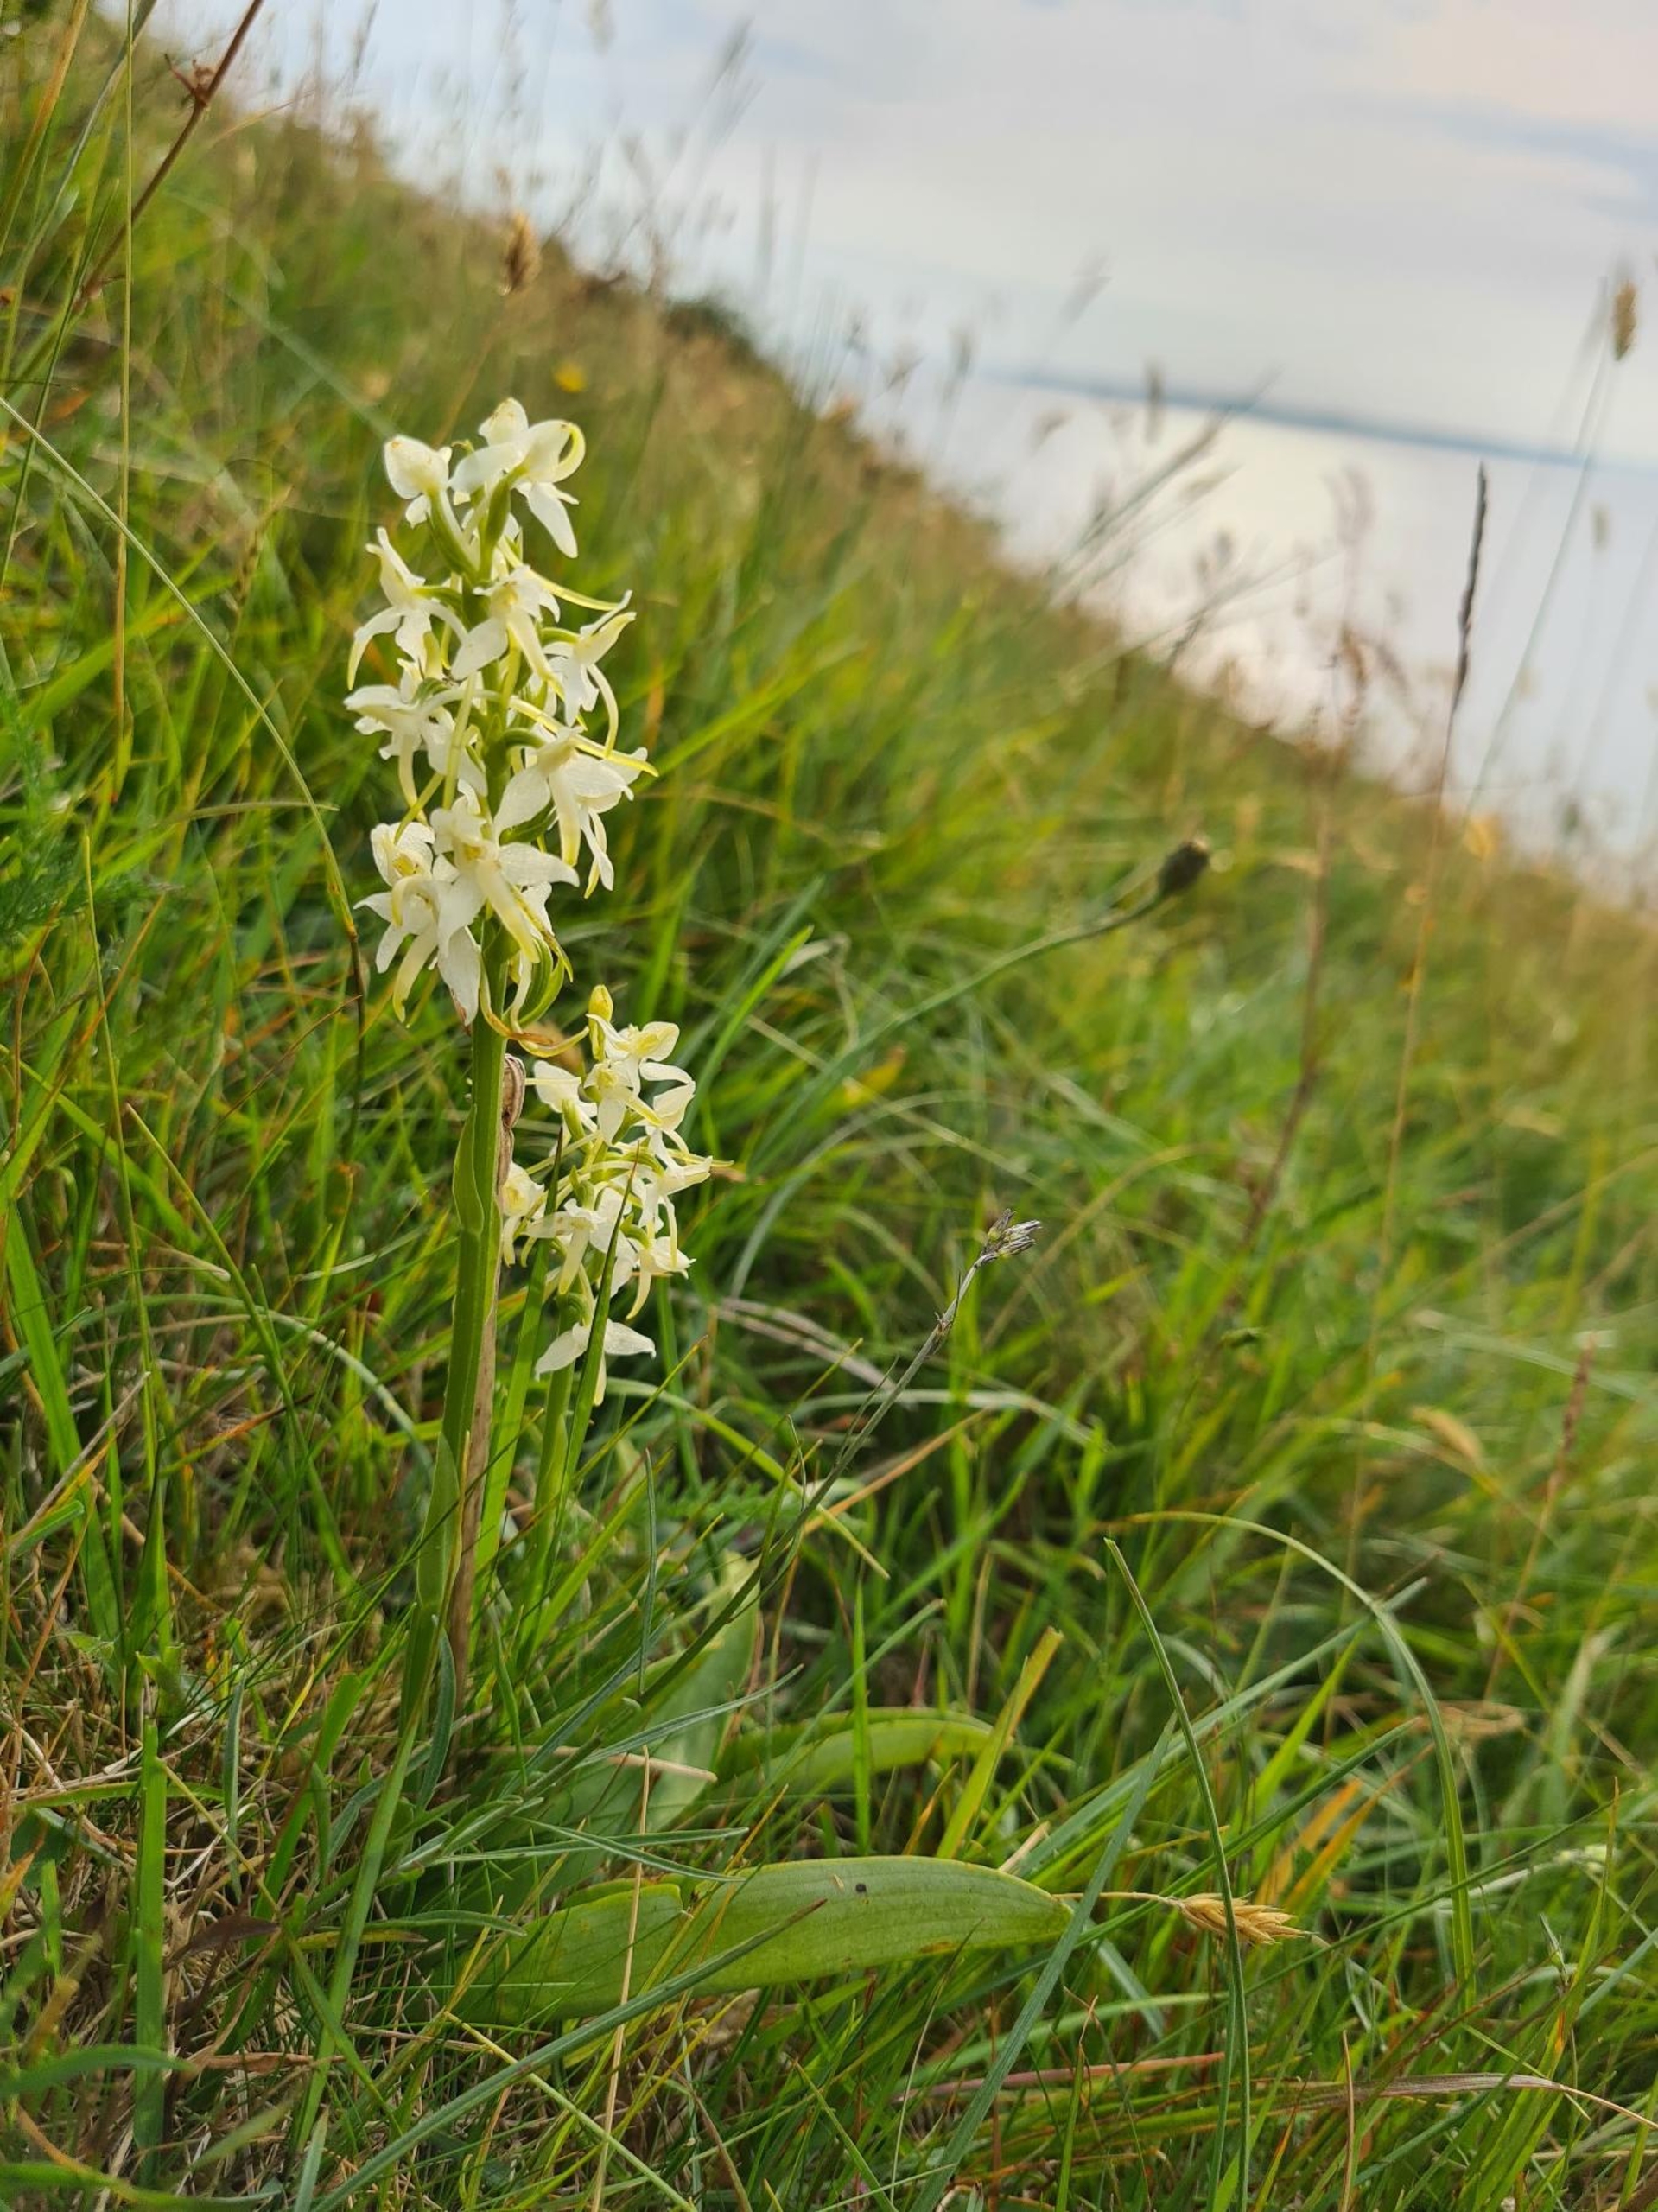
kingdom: Plantae
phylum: Tracheophyta
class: Liliopsida
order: Asparagales
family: Orchidaceae
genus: Platanthera
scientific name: Platanthera bifolia
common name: Bakke-gøgelilje (underart)
